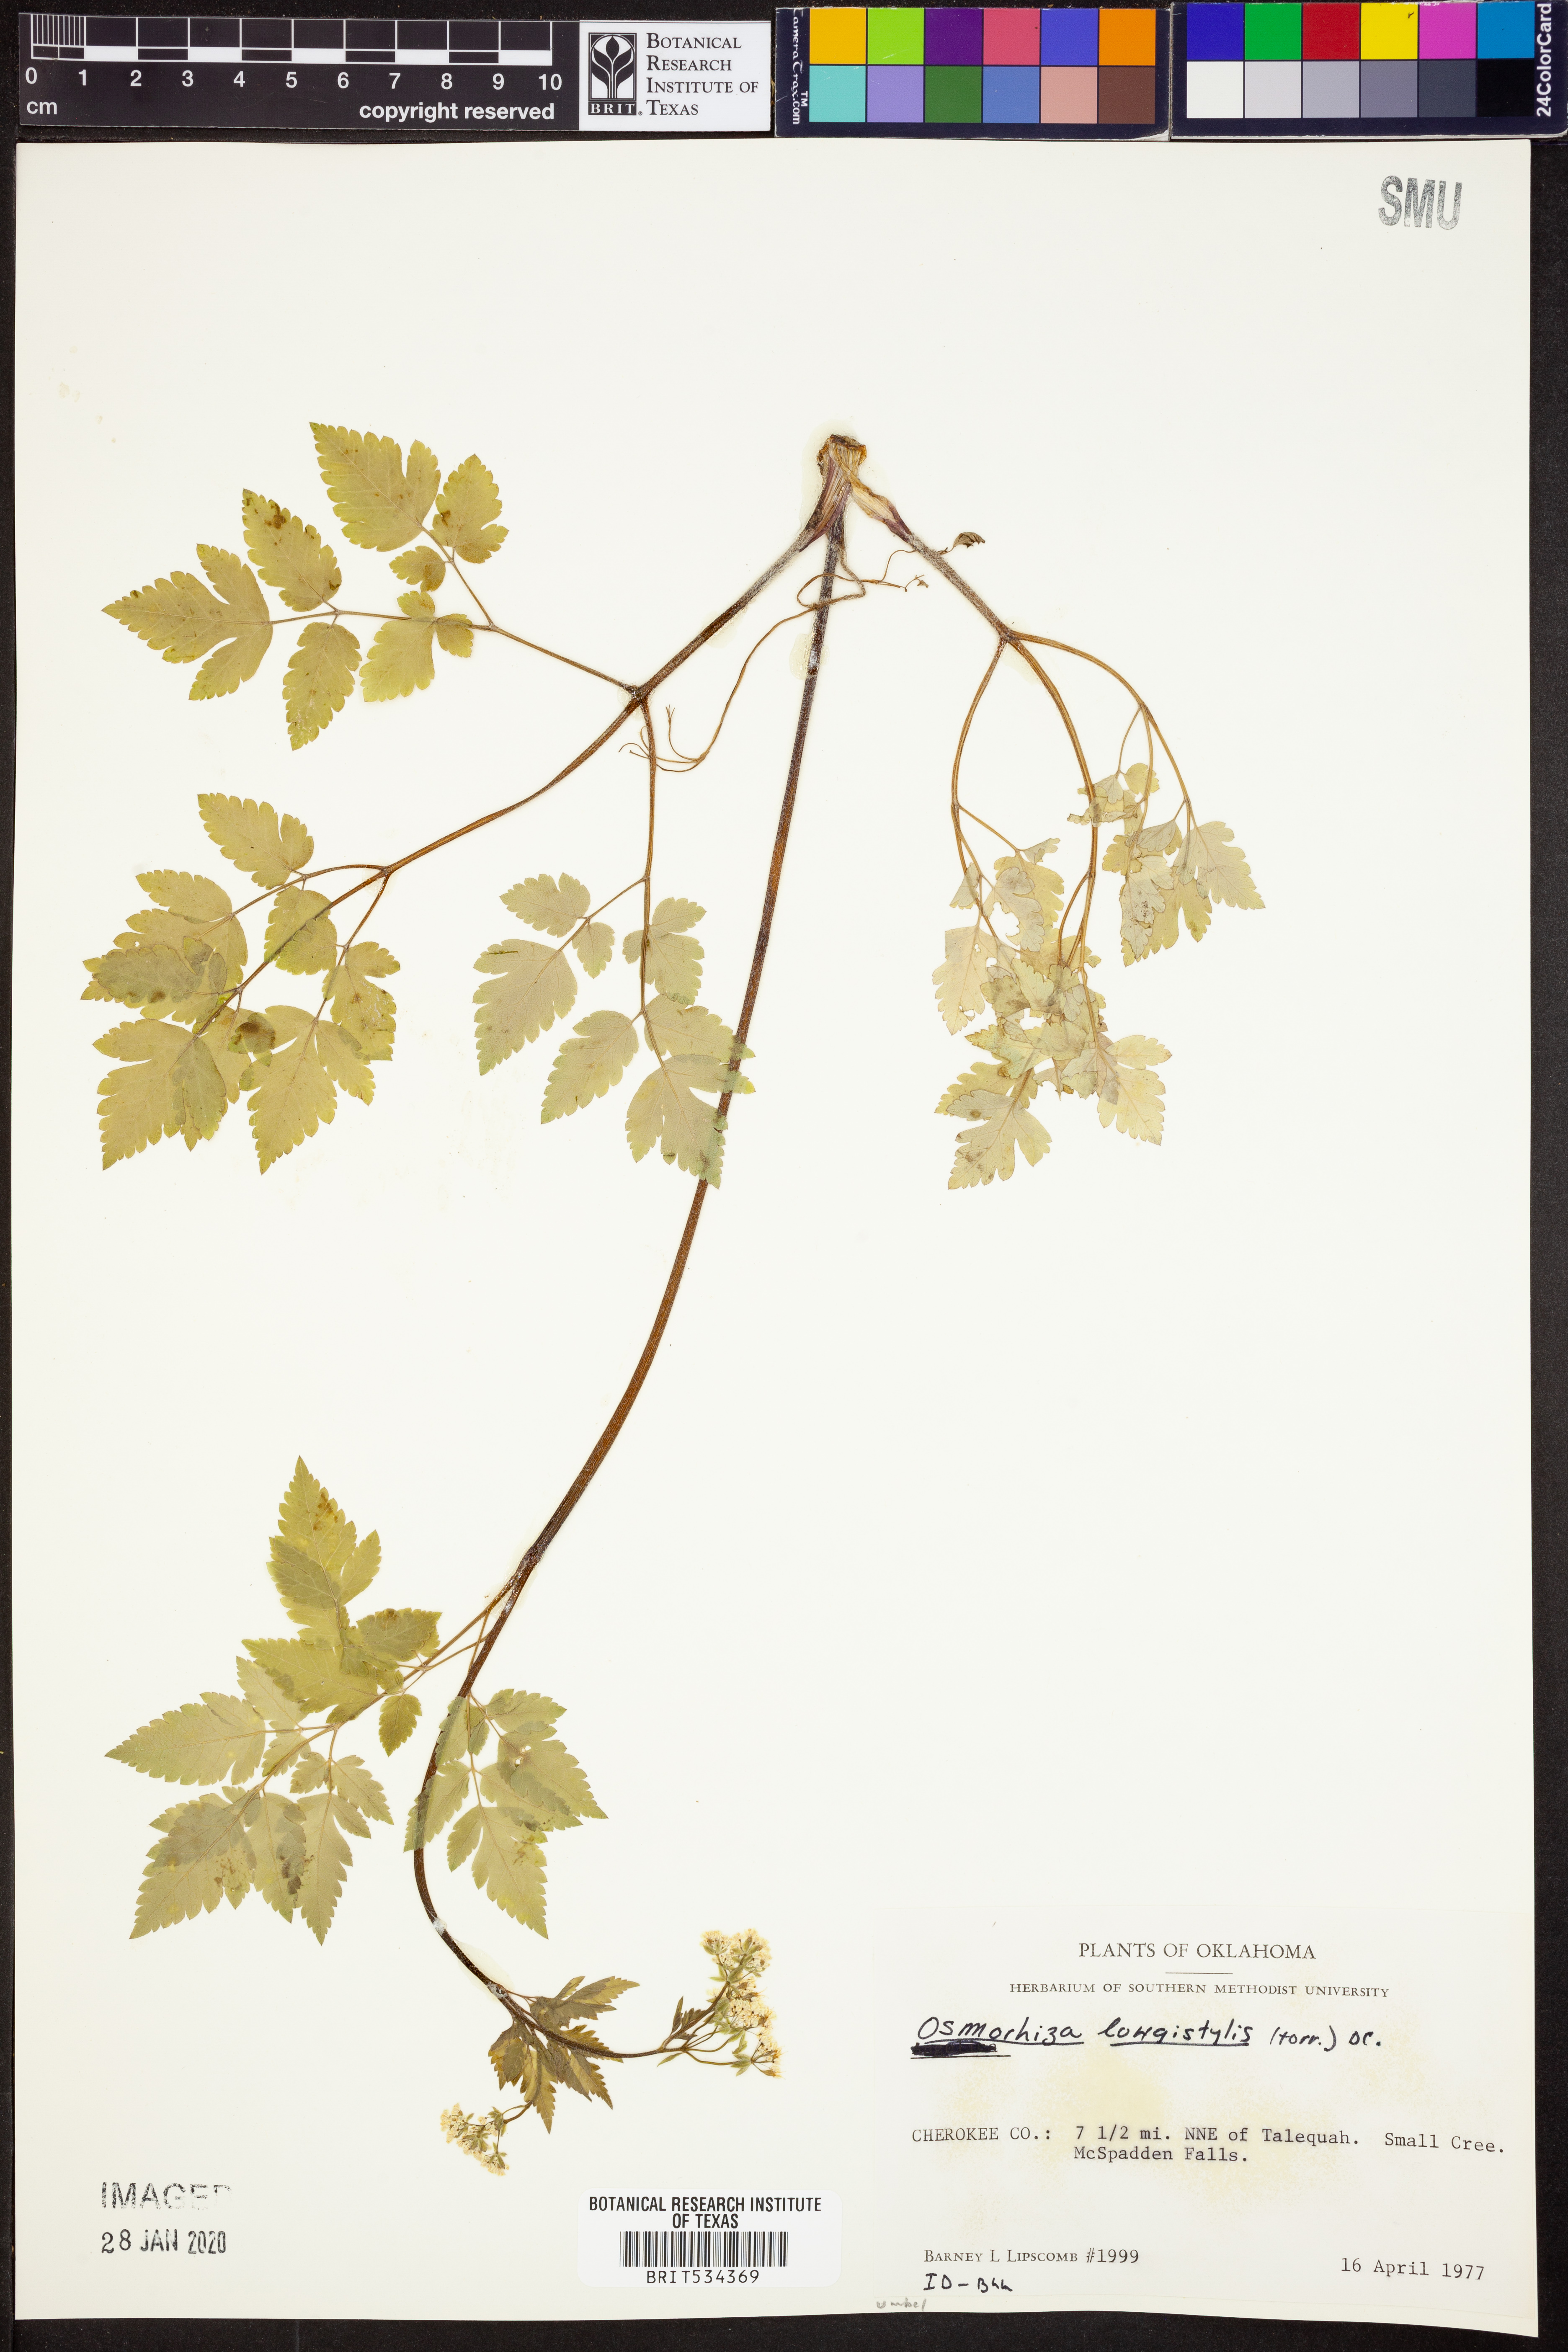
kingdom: Plantae
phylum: Tracheophyta
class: Magnoliopsida
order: Apiales
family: Apiaceae
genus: Osmorhiza
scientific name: Osmorhiza longistylis
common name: Smooth sweet cicely
